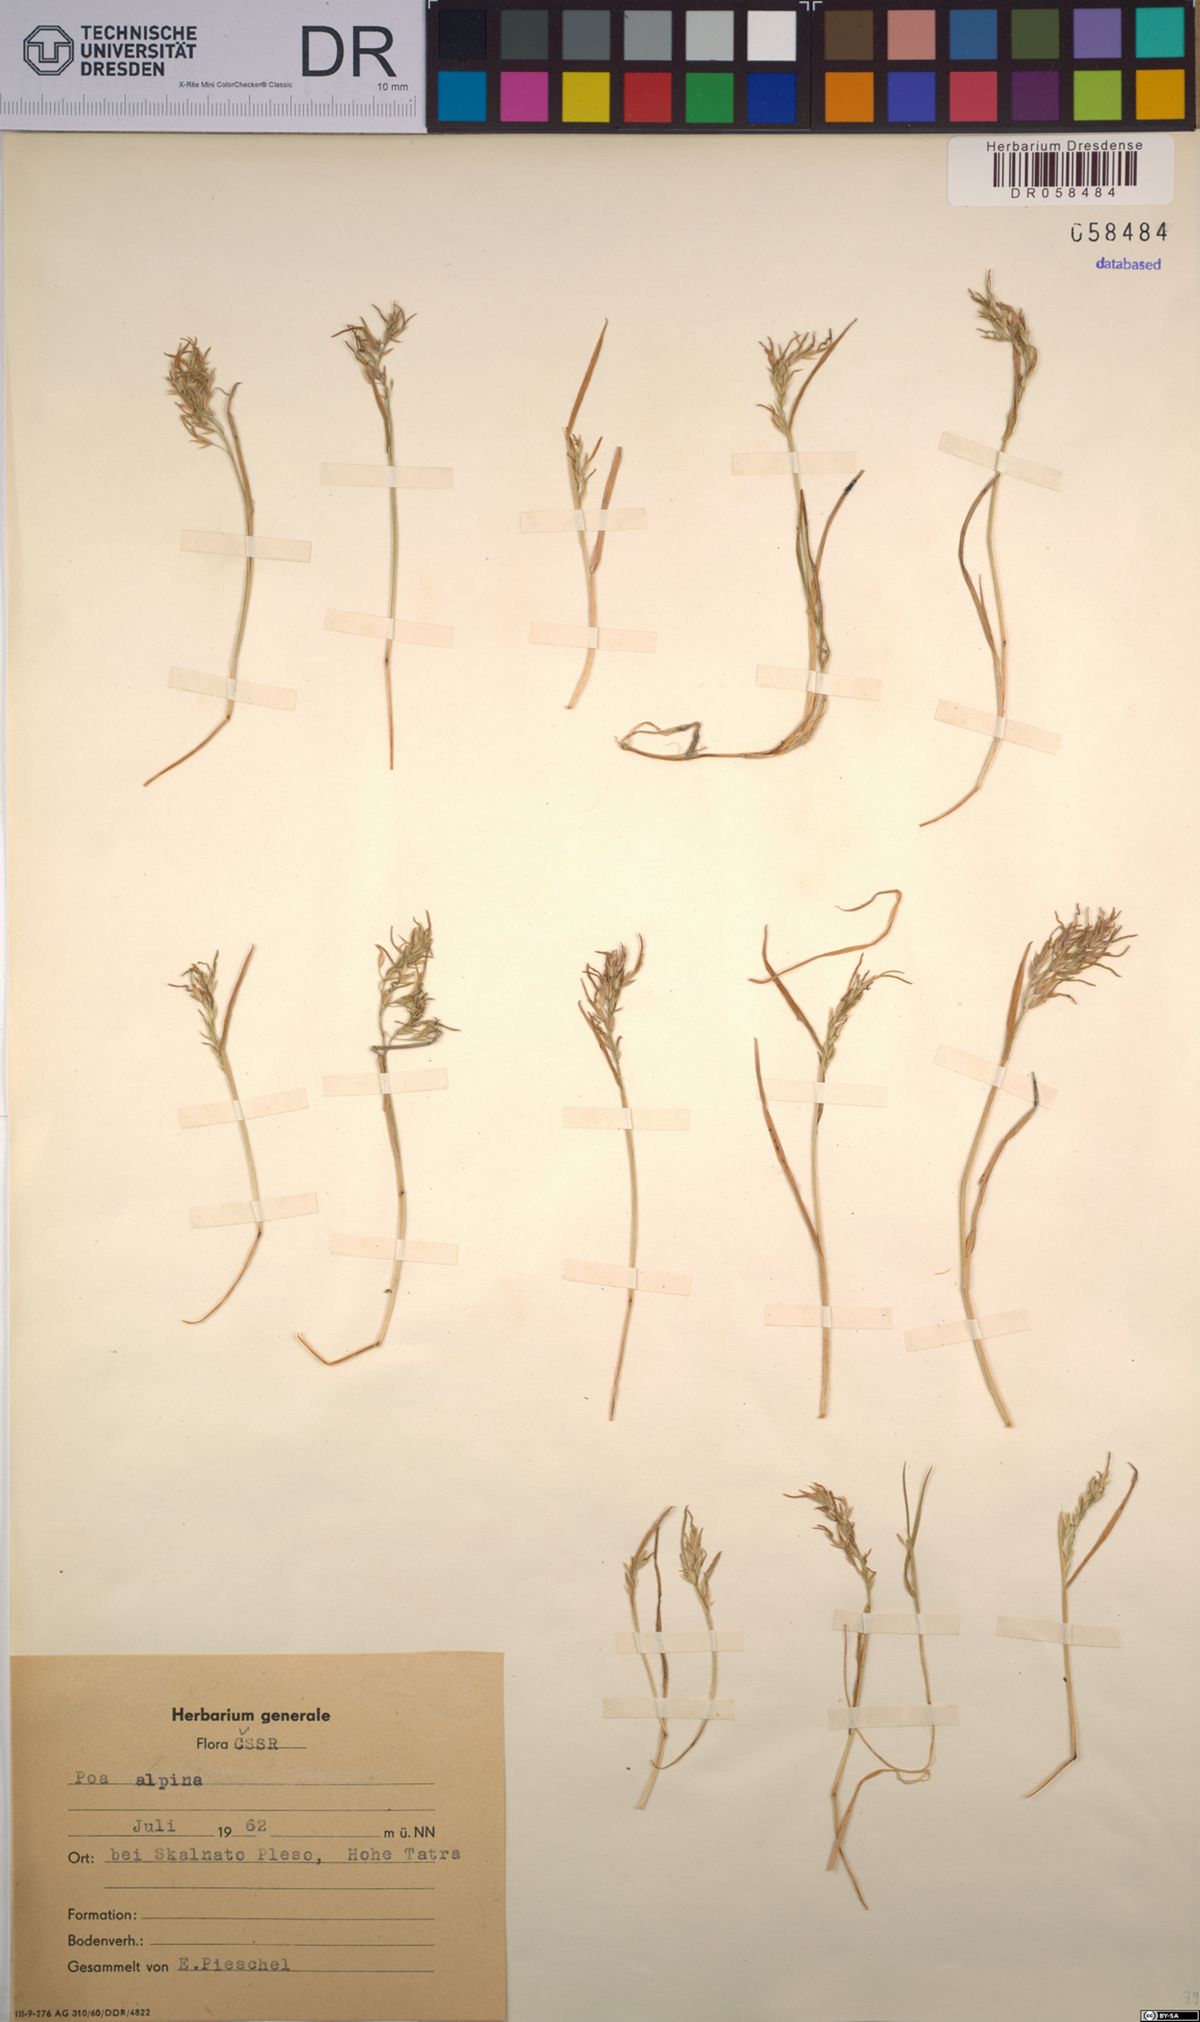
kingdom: Plantae
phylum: Tracheophyta
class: Liliopsida
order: Poales
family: Poaceae
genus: Poa
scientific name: Poa alpina
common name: Alpine bluegrass
